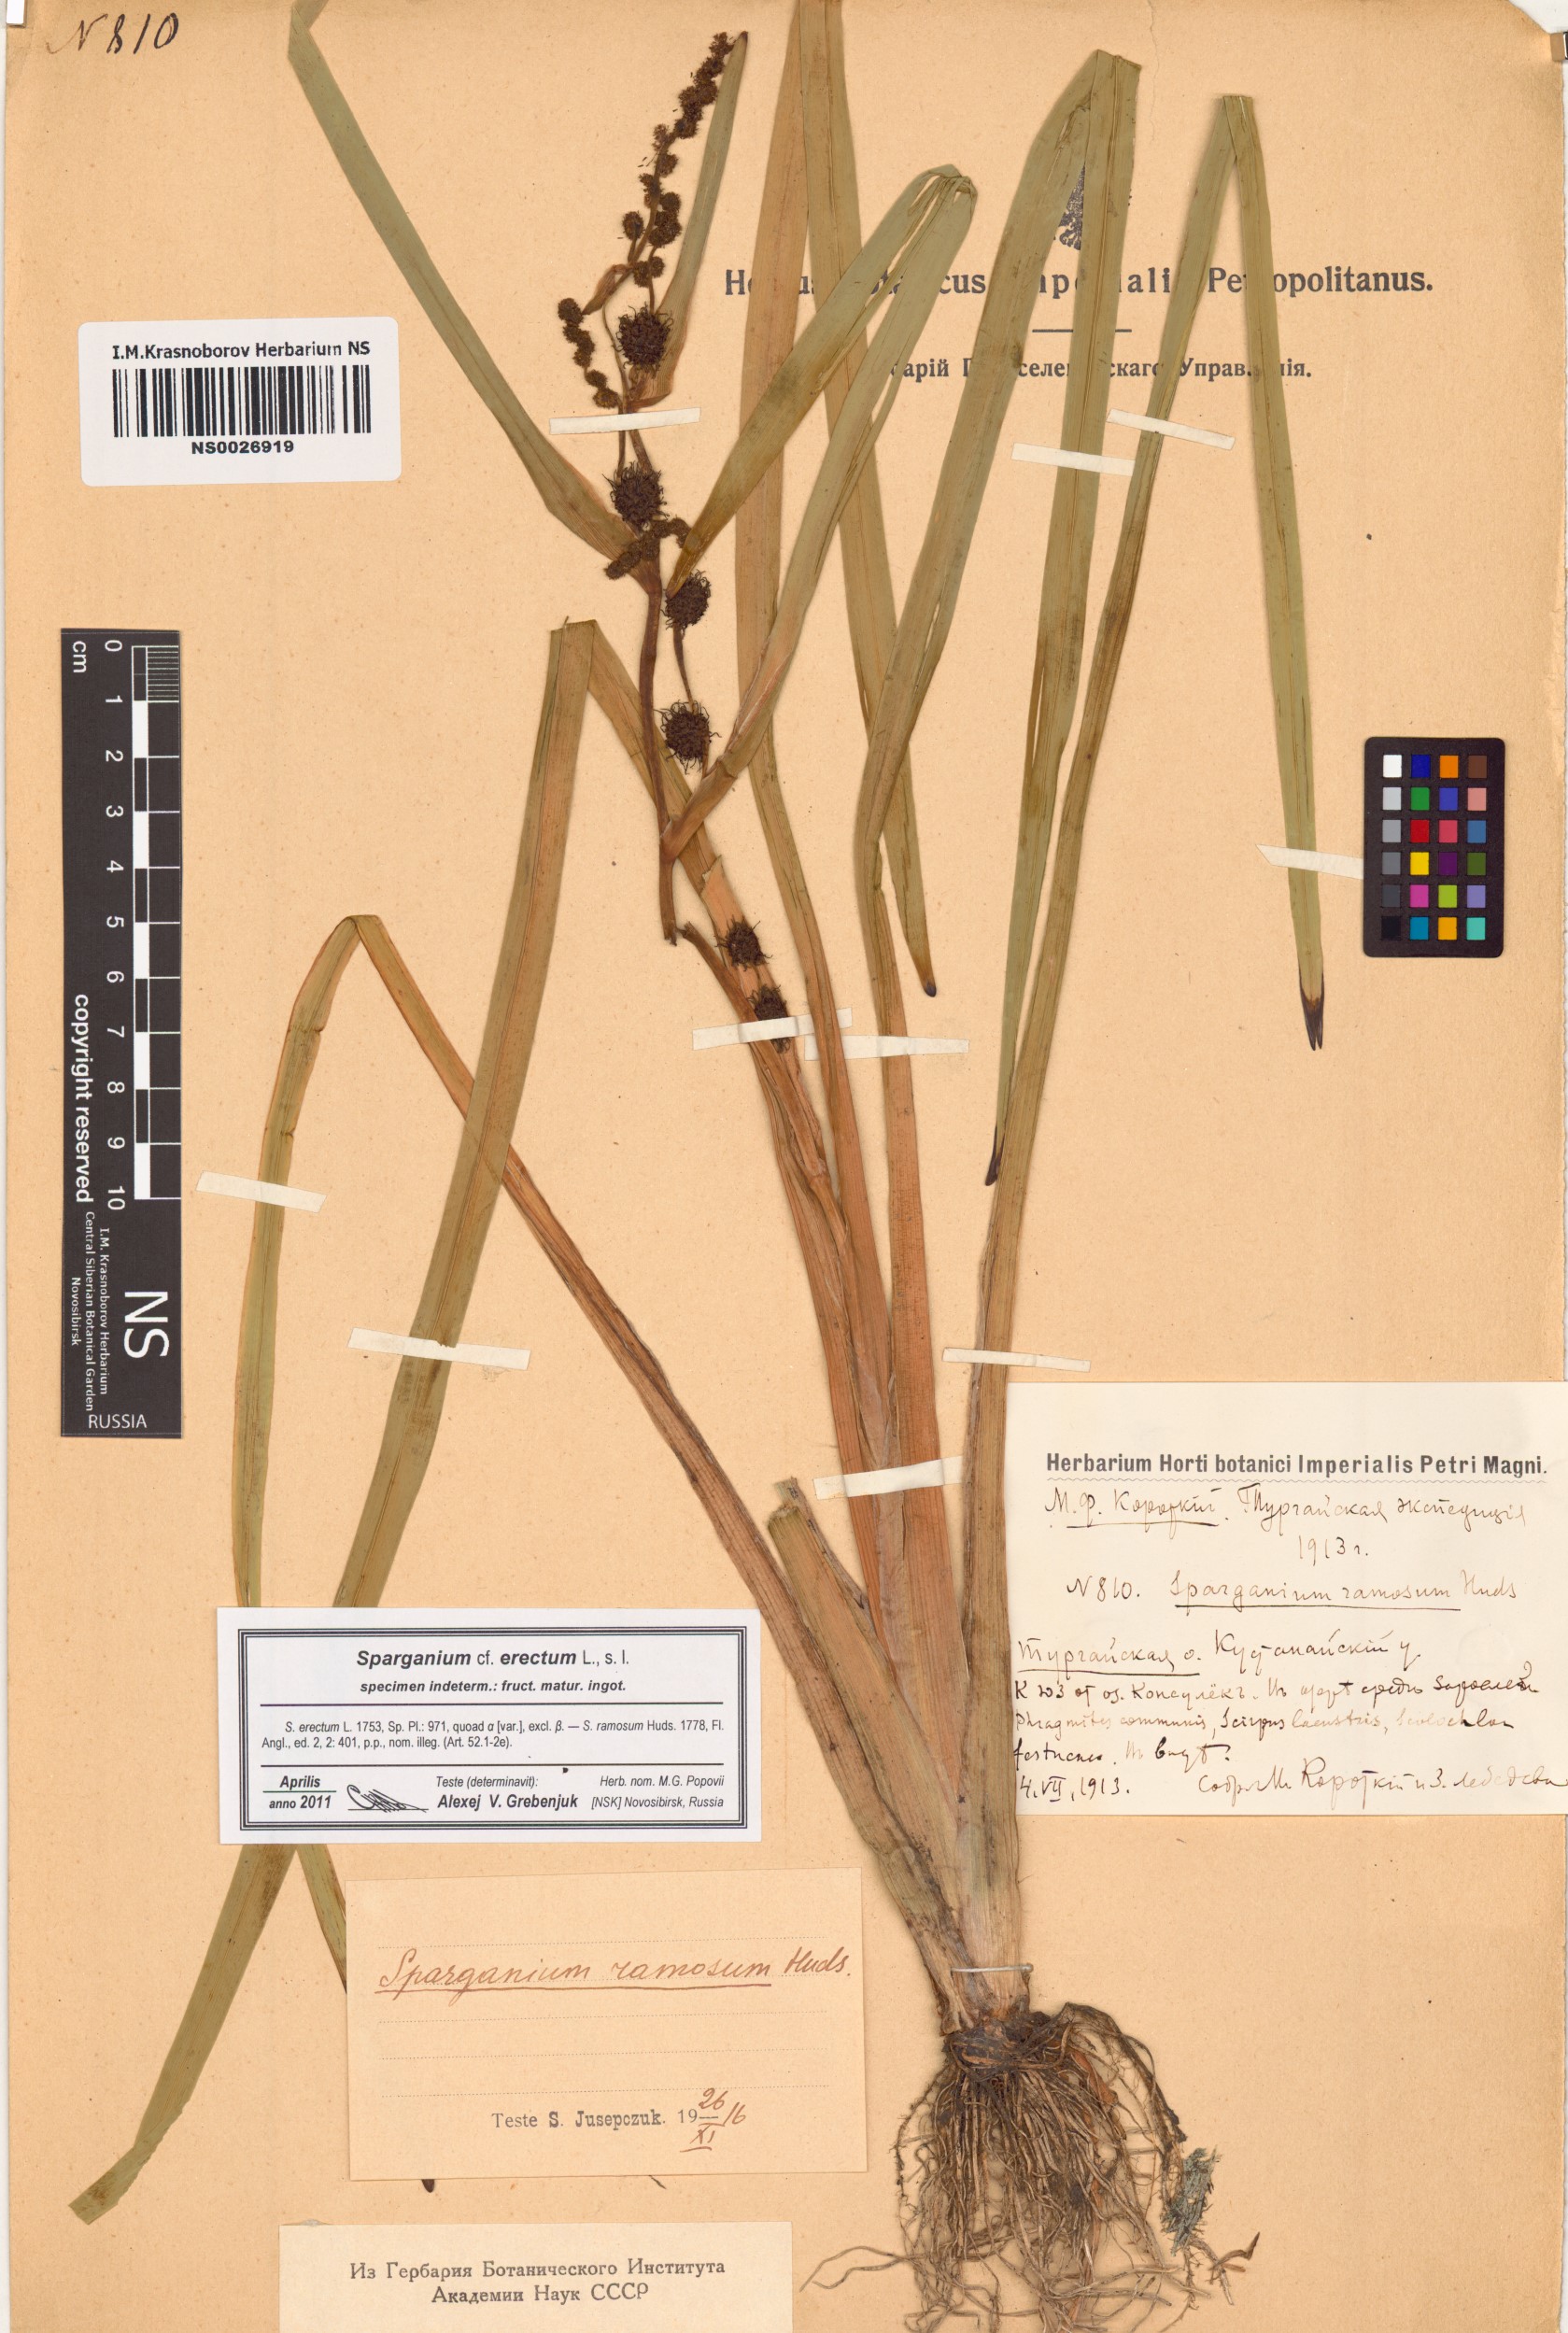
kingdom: Plantae
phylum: Tracheophyta
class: Liliopsida
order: Poales
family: Typhaceae
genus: Sparganium
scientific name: Sparganium erectum
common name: Branched bur-reed
